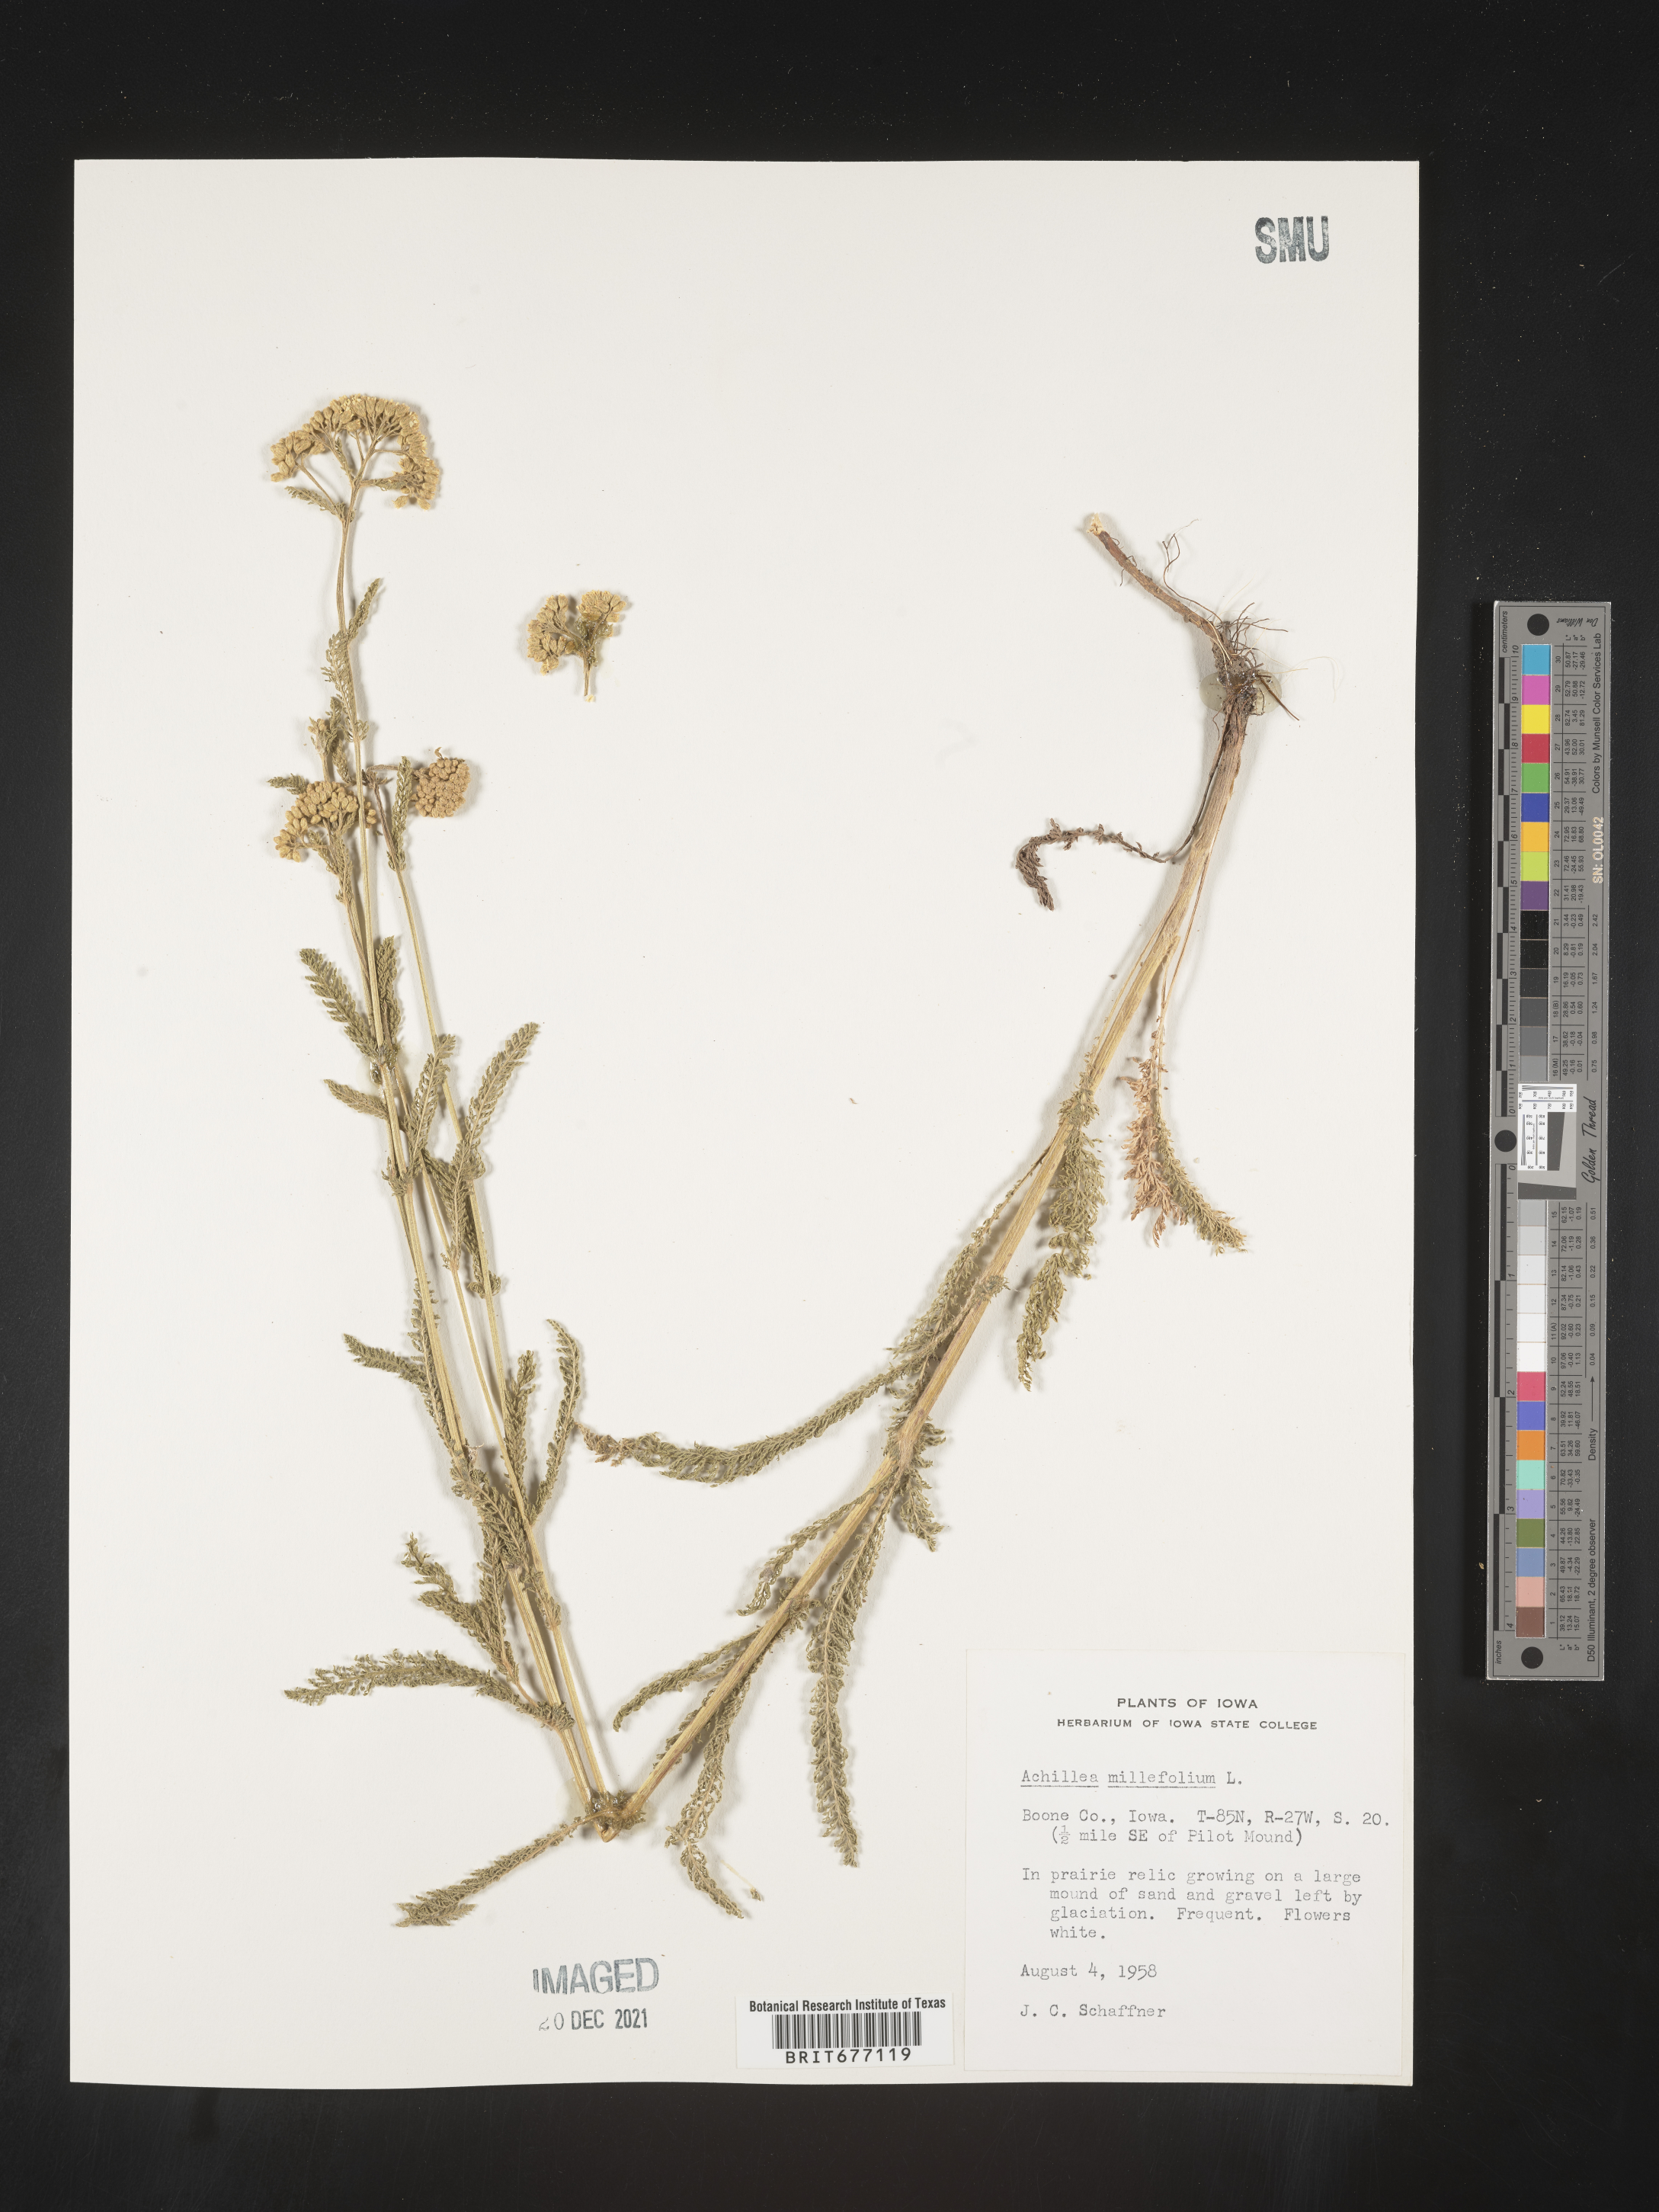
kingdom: Plantae
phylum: Tracheophyta
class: Magnoliopsida
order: Asterales
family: Asteraceae
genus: Achillea
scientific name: Achillea millefolium
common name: Yarrow
